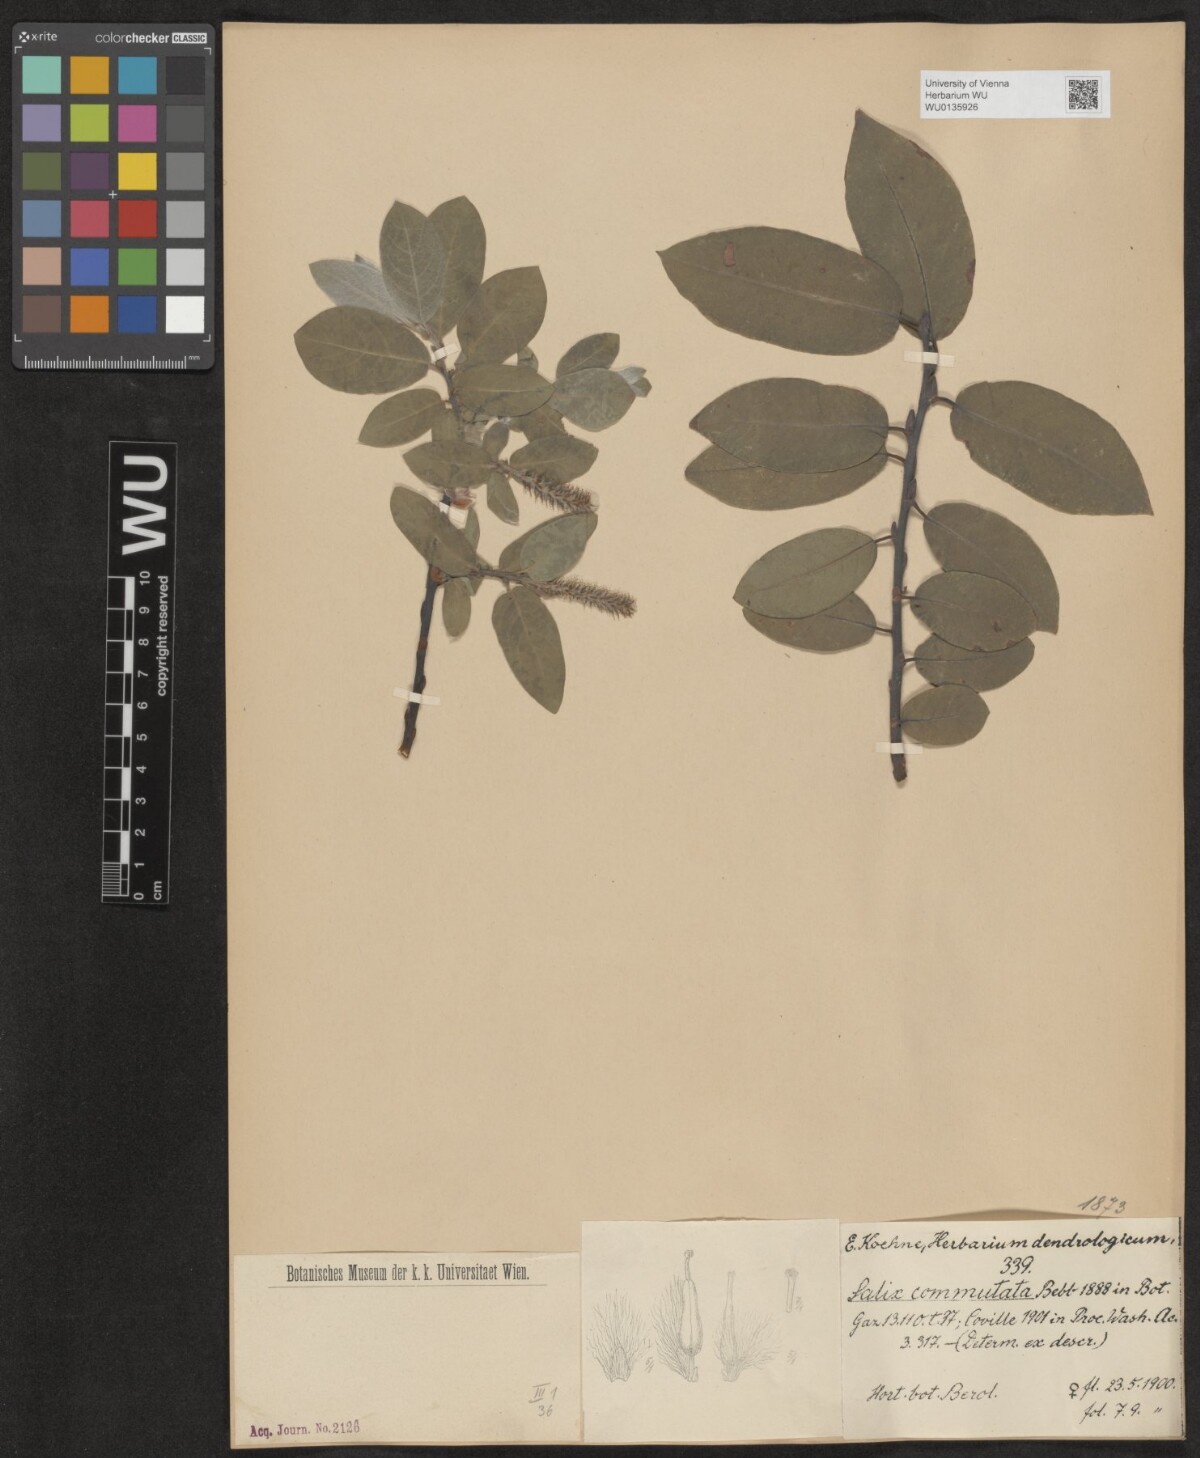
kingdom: Plantae
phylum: Tracheophyta
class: Magnoliopsida
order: Malpighiales
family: Salicaceae
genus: Salix
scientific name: Salix commutata
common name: Under-green willow
